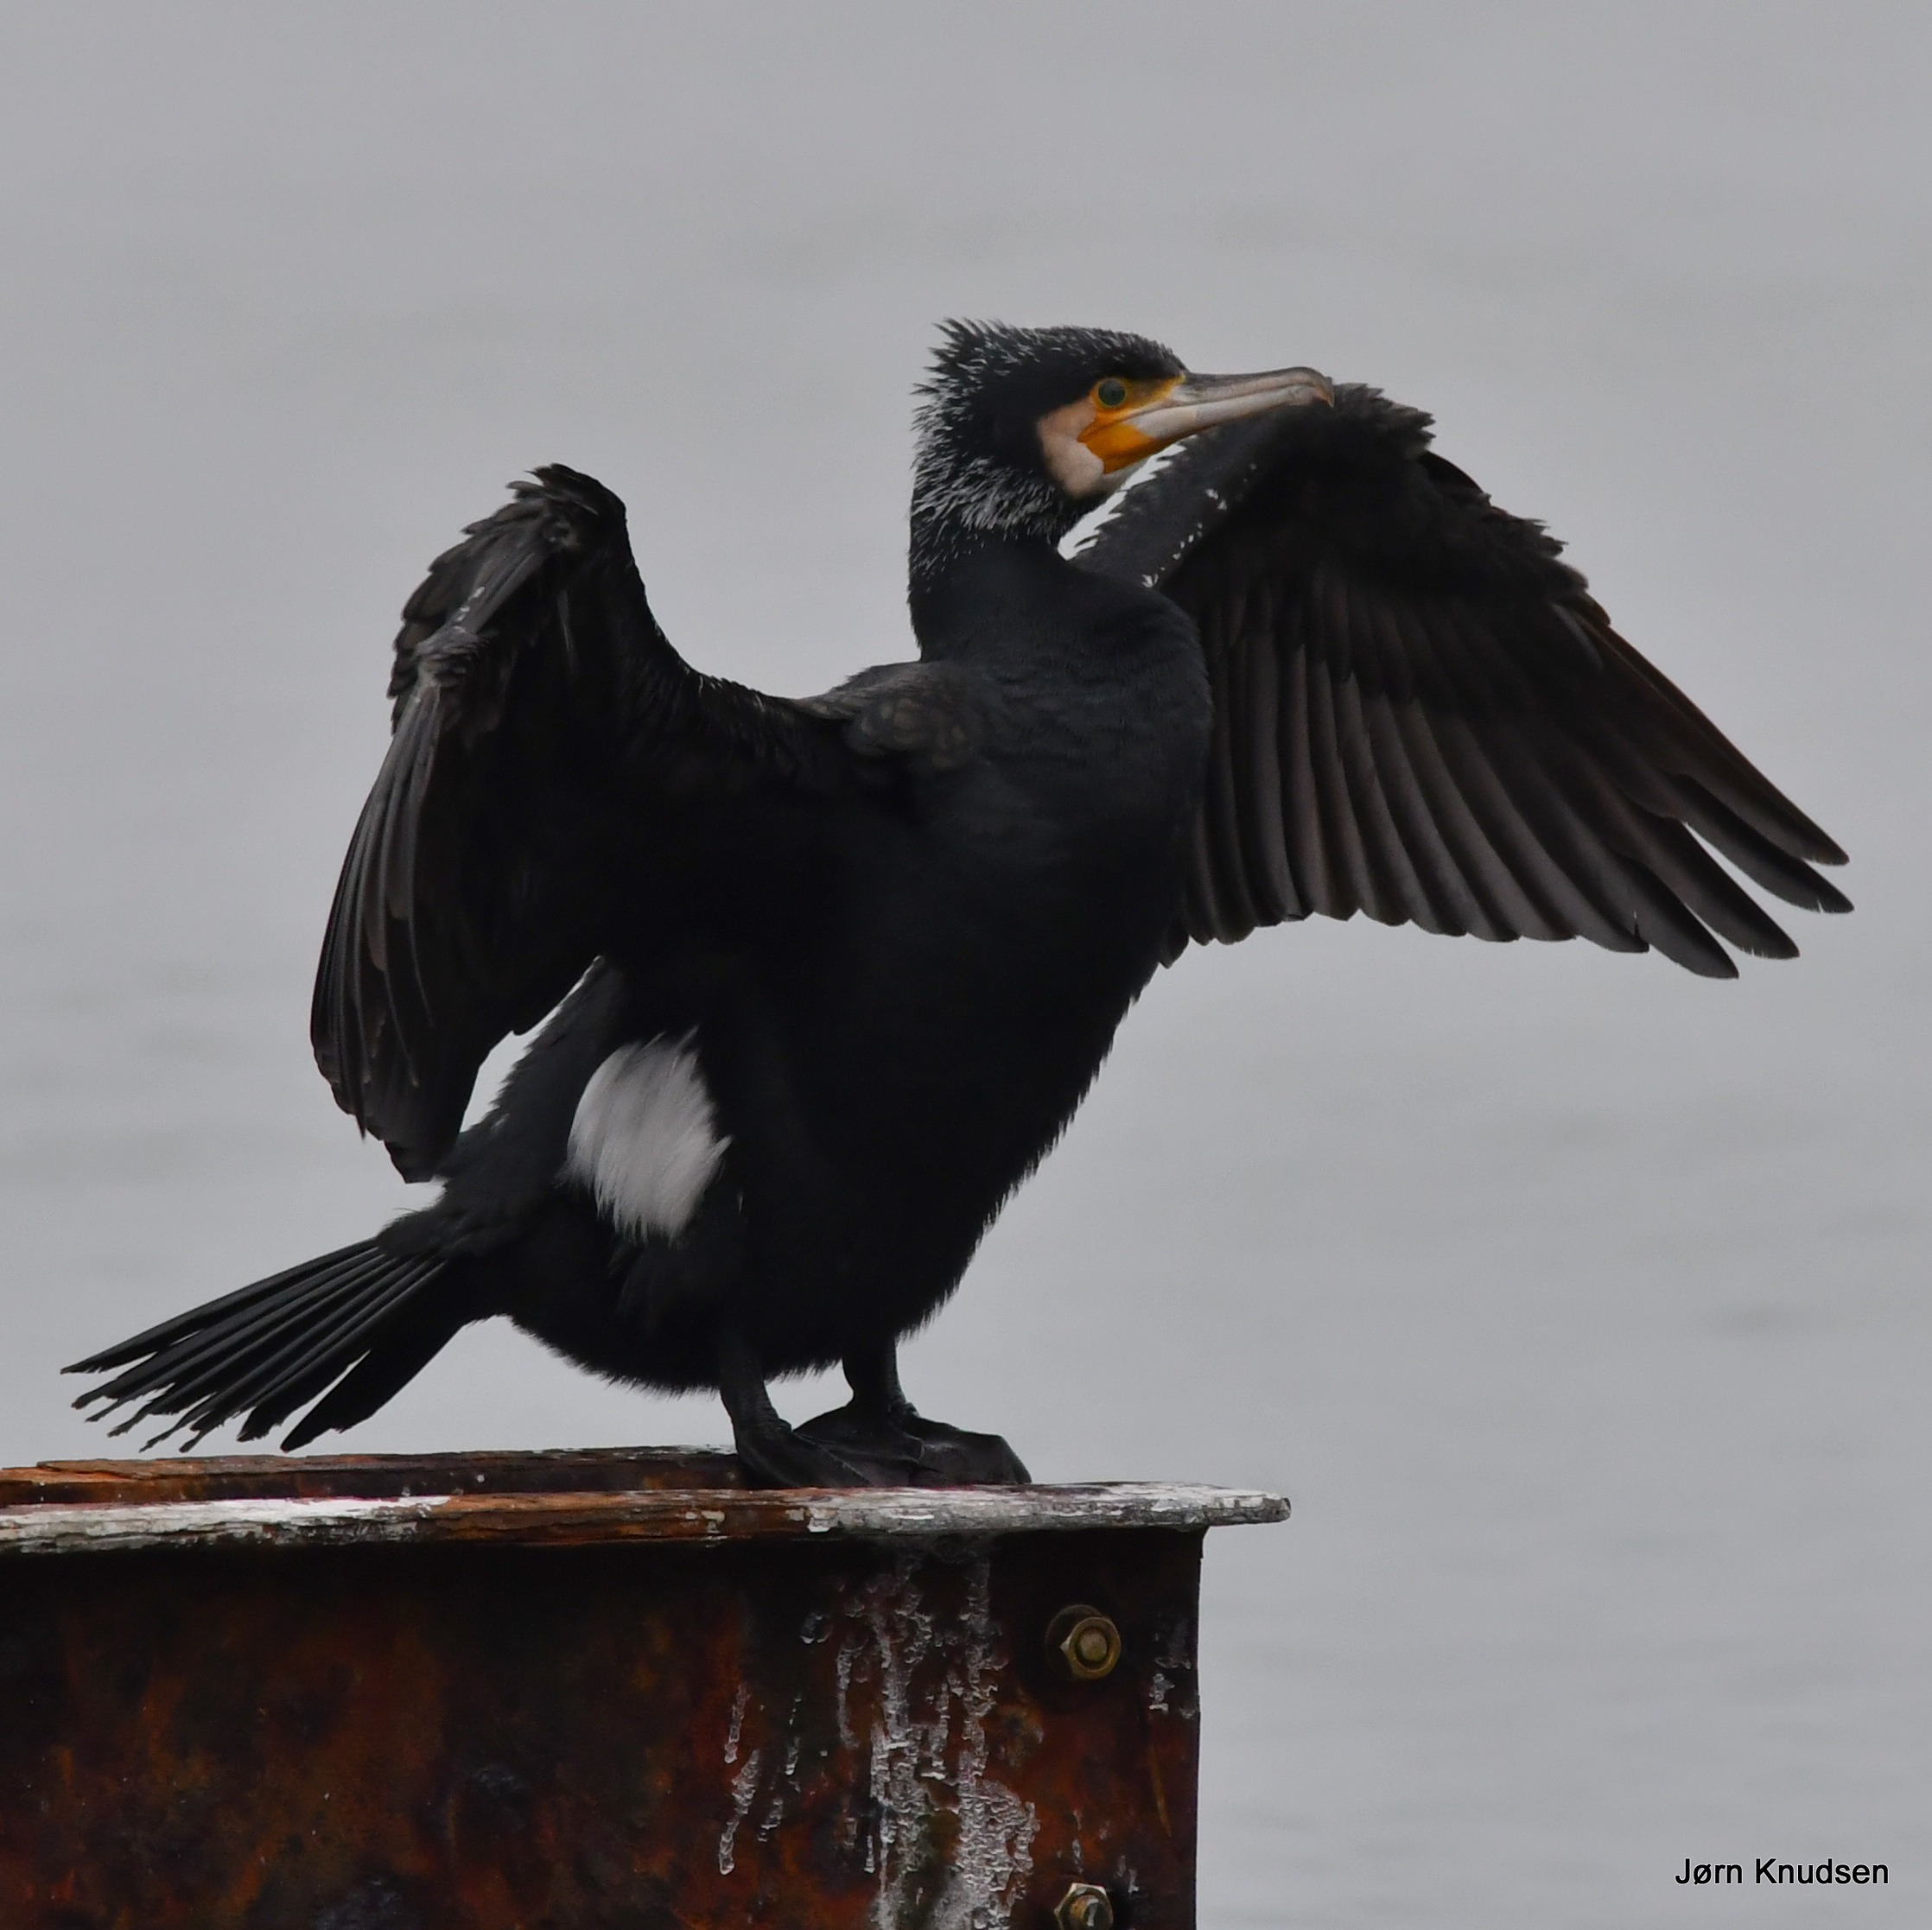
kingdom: Animalia
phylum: Chordata
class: Aves
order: Suliformes
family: Phalacrocoracidae
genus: Phalacrocorax
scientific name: Phalacrocorax carbo
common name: Skarv
